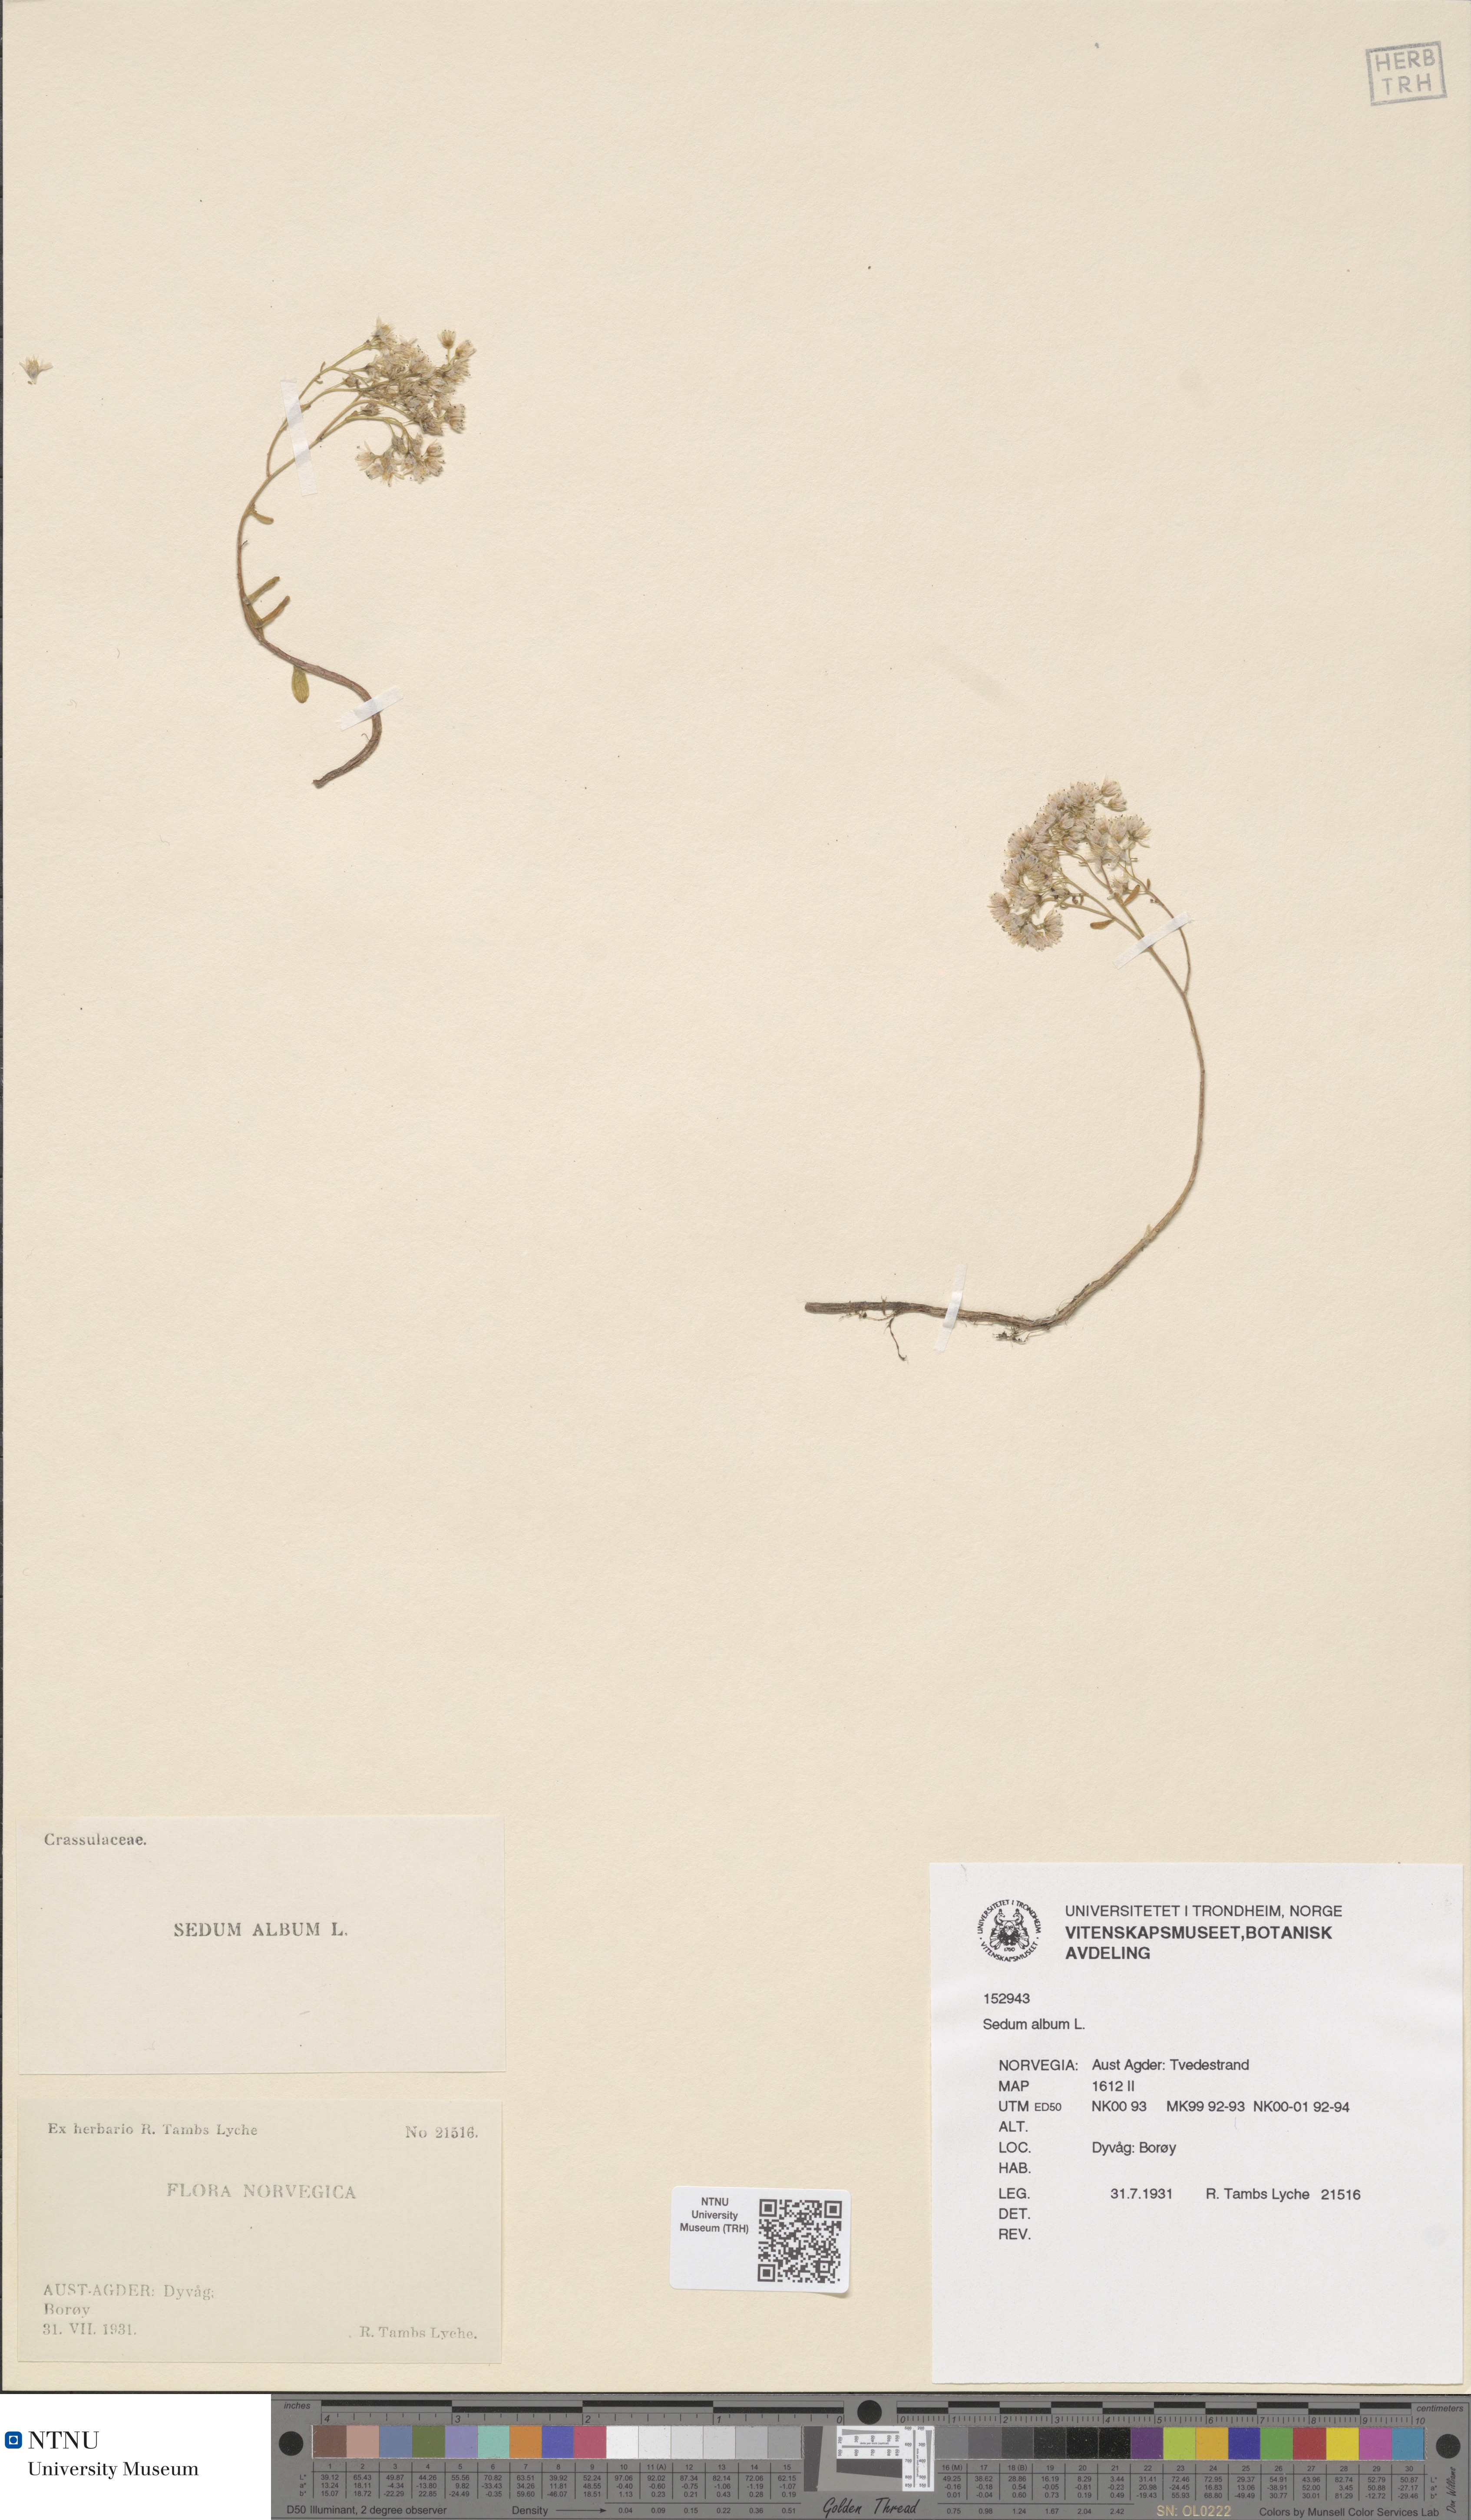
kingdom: Plantae
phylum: Tracheophyta
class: Magnoliopsida
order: Saxifragales
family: Crassulaceae
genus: Sedum
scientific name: Sedum album
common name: White stonecrop
